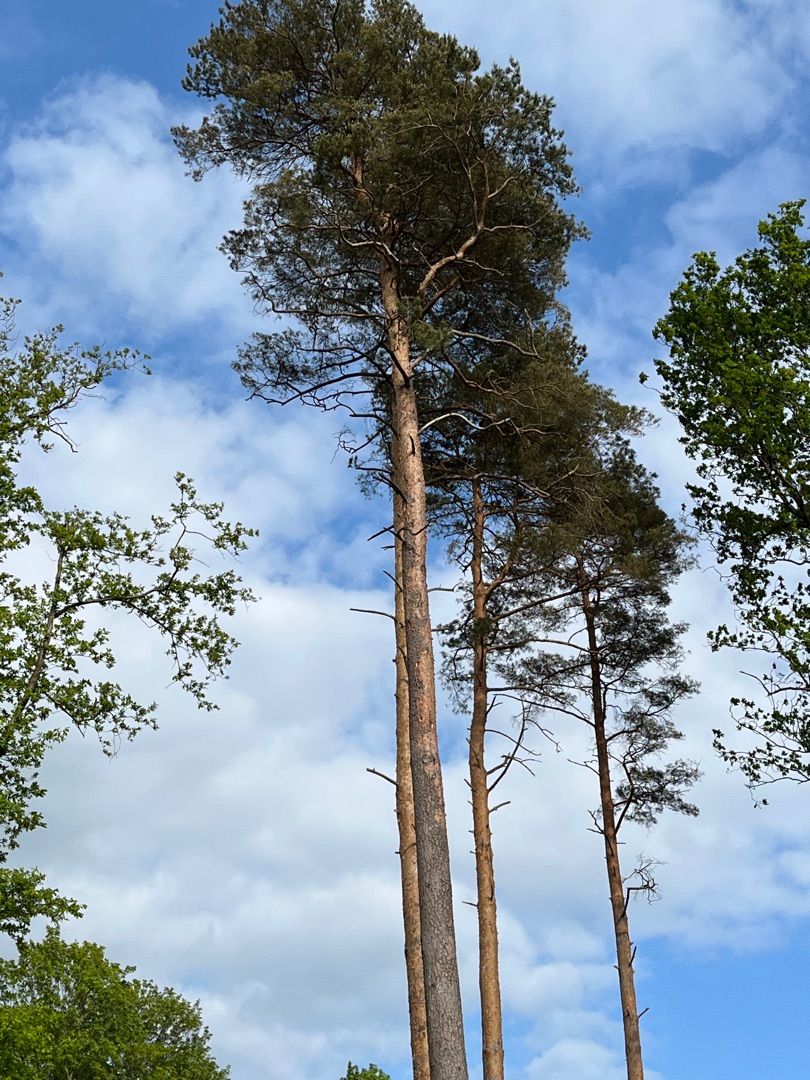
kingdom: Plantae
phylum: Tracheophyta
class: Pinopsida
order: Pinales
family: Pinaceae
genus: Pinus
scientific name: Pinus sylvestris
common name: Skov-fyr
